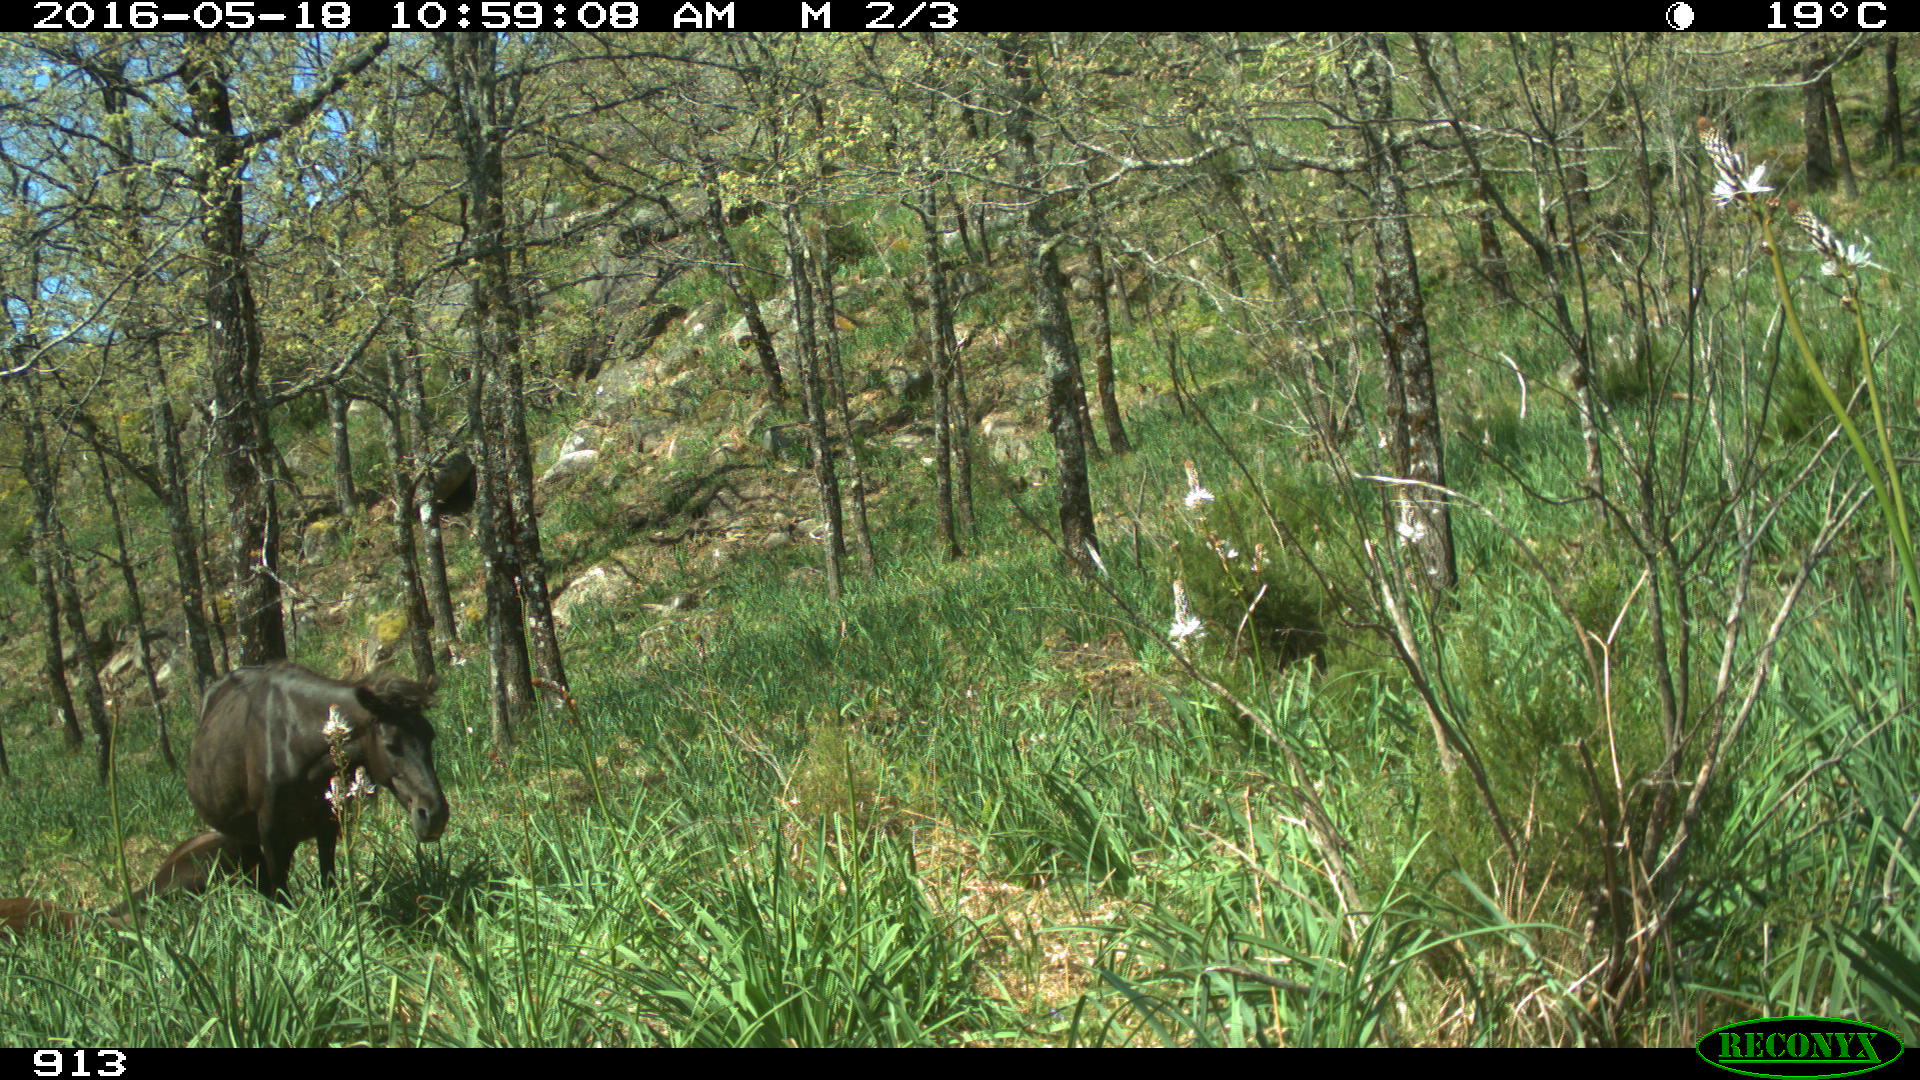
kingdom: Animalia
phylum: Chordata
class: Mammalia
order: Perissodactyla
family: Equidae
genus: Equus
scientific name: Equus caballus
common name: Horse
